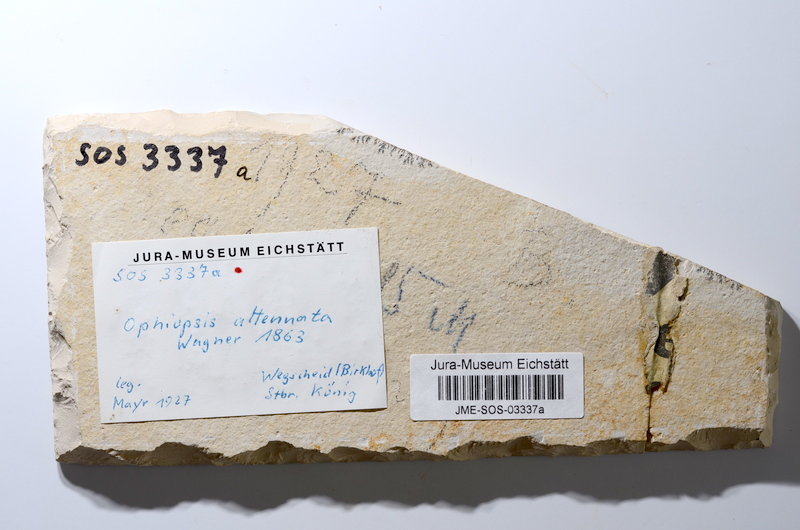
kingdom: Animalia
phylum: Chordata
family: Ophiopsiellidae
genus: Ophiopsiella
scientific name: Ophiopsiella attenuata
